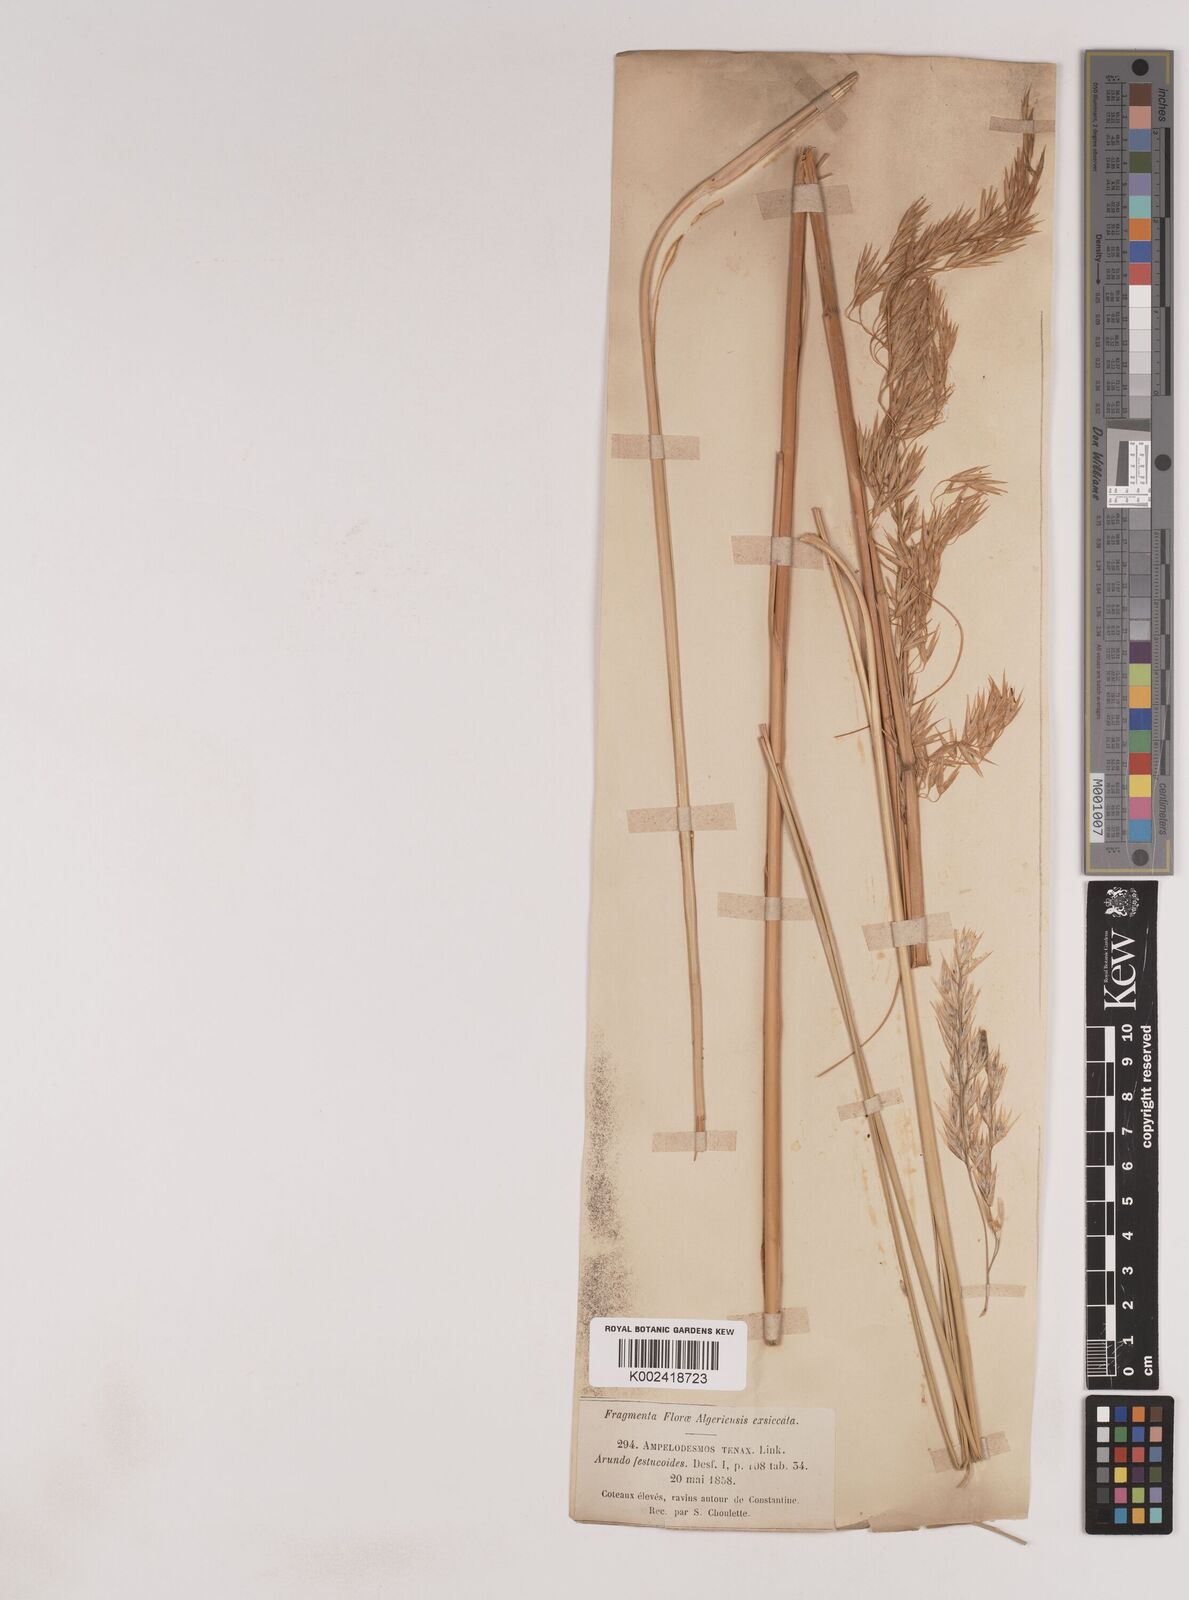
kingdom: Plantae
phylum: Tracheophyta
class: Liliopsida
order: Poales
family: Poaceae
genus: Ampelodesmos
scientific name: Ampelodesmos mauritanicus
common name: Mauritanian grass
